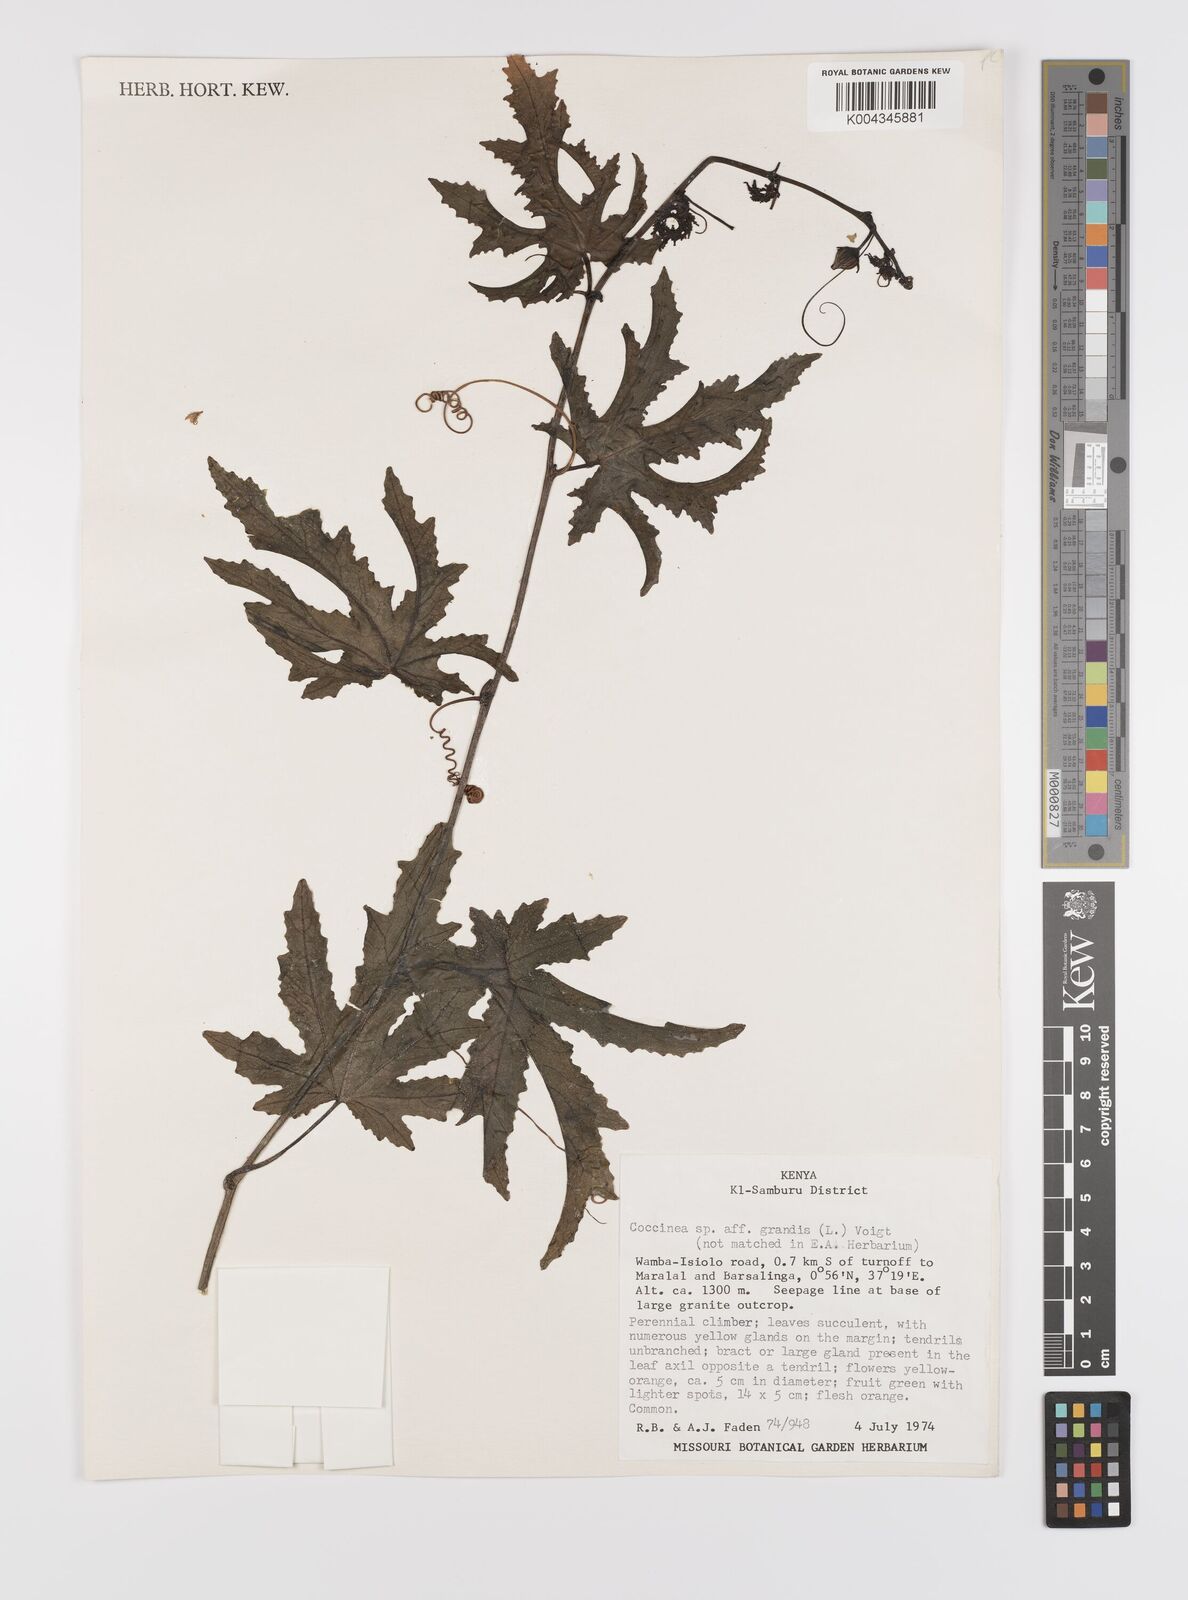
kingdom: Plantae
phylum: Tracheophyta
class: Magnoliopsida
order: Cucurbitales
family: Cucurbitaceae
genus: Coccinia
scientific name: Coccinia
